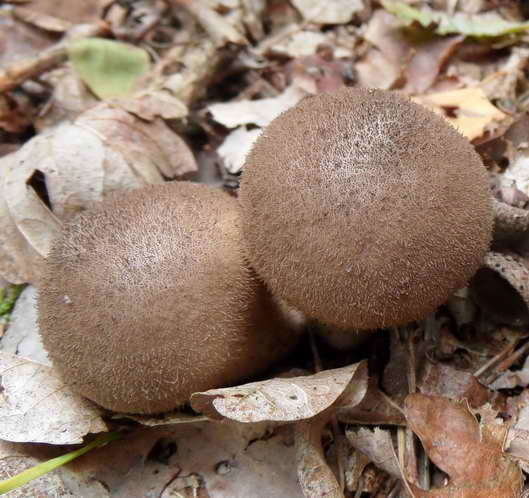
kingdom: Fungi
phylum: Basidiomycota
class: Agaricomycetes
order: Agaricales
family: Lycoperdaceae
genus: Lycoperdon
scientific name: Lycoperdon molle
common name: skov-støvbold
